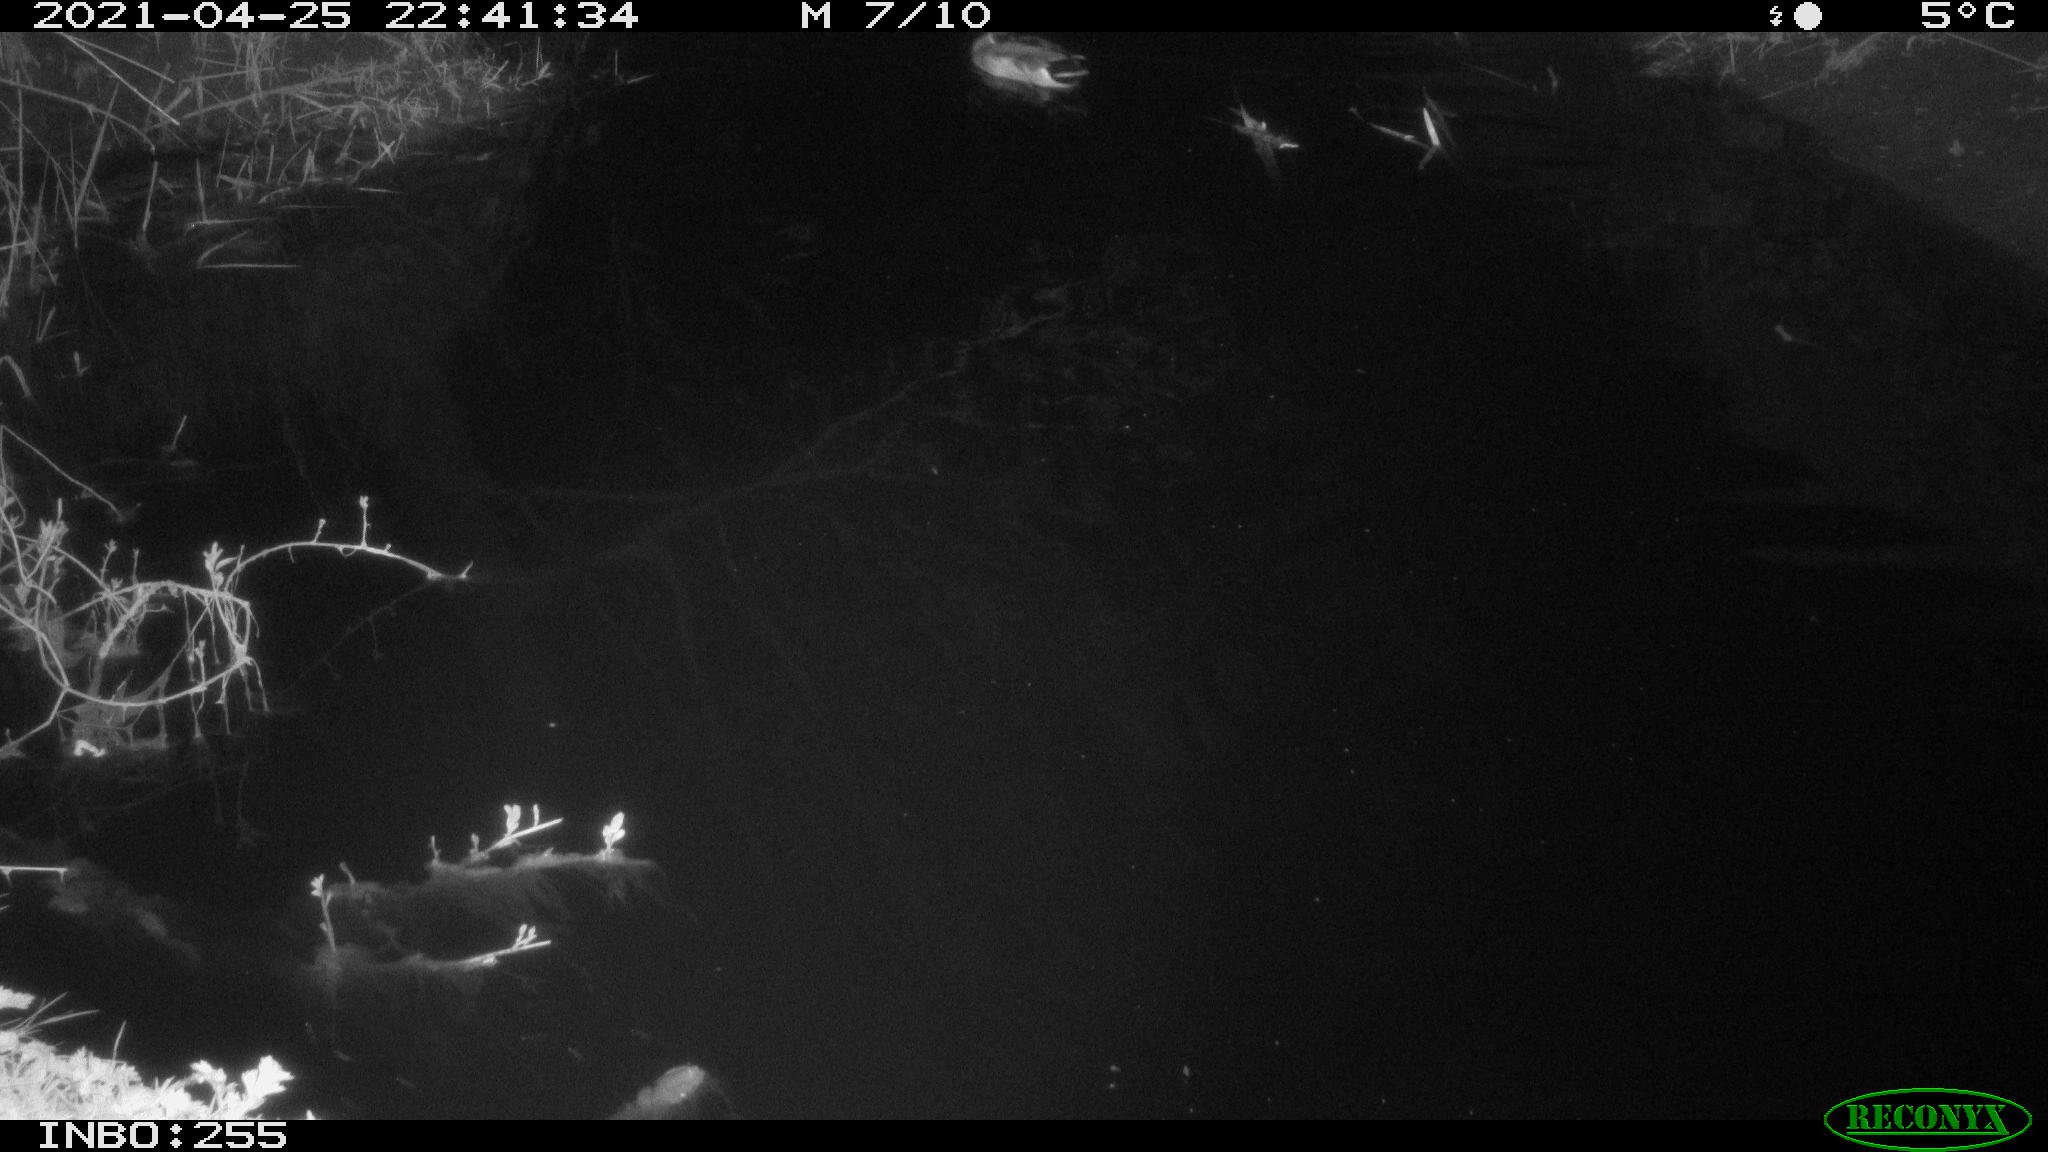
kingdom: Animalia
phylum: Chordata
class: Aves
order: Anseriformes
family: Anatidae
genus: Anas
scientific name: Anas platyrhynchos
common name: Mallard
